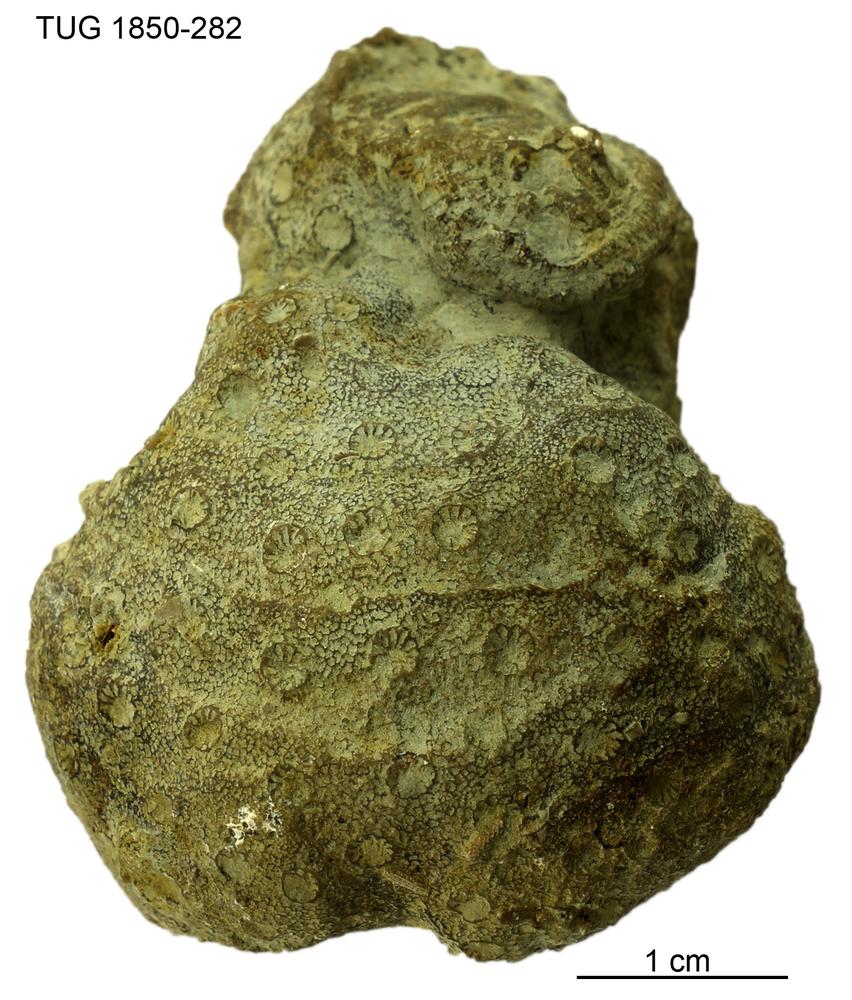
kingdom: Animalia
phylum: Cnidaria
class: Anthozoa
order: Heliolitina
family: Heliolitidae
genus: Heliolites
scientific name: Heliolites
